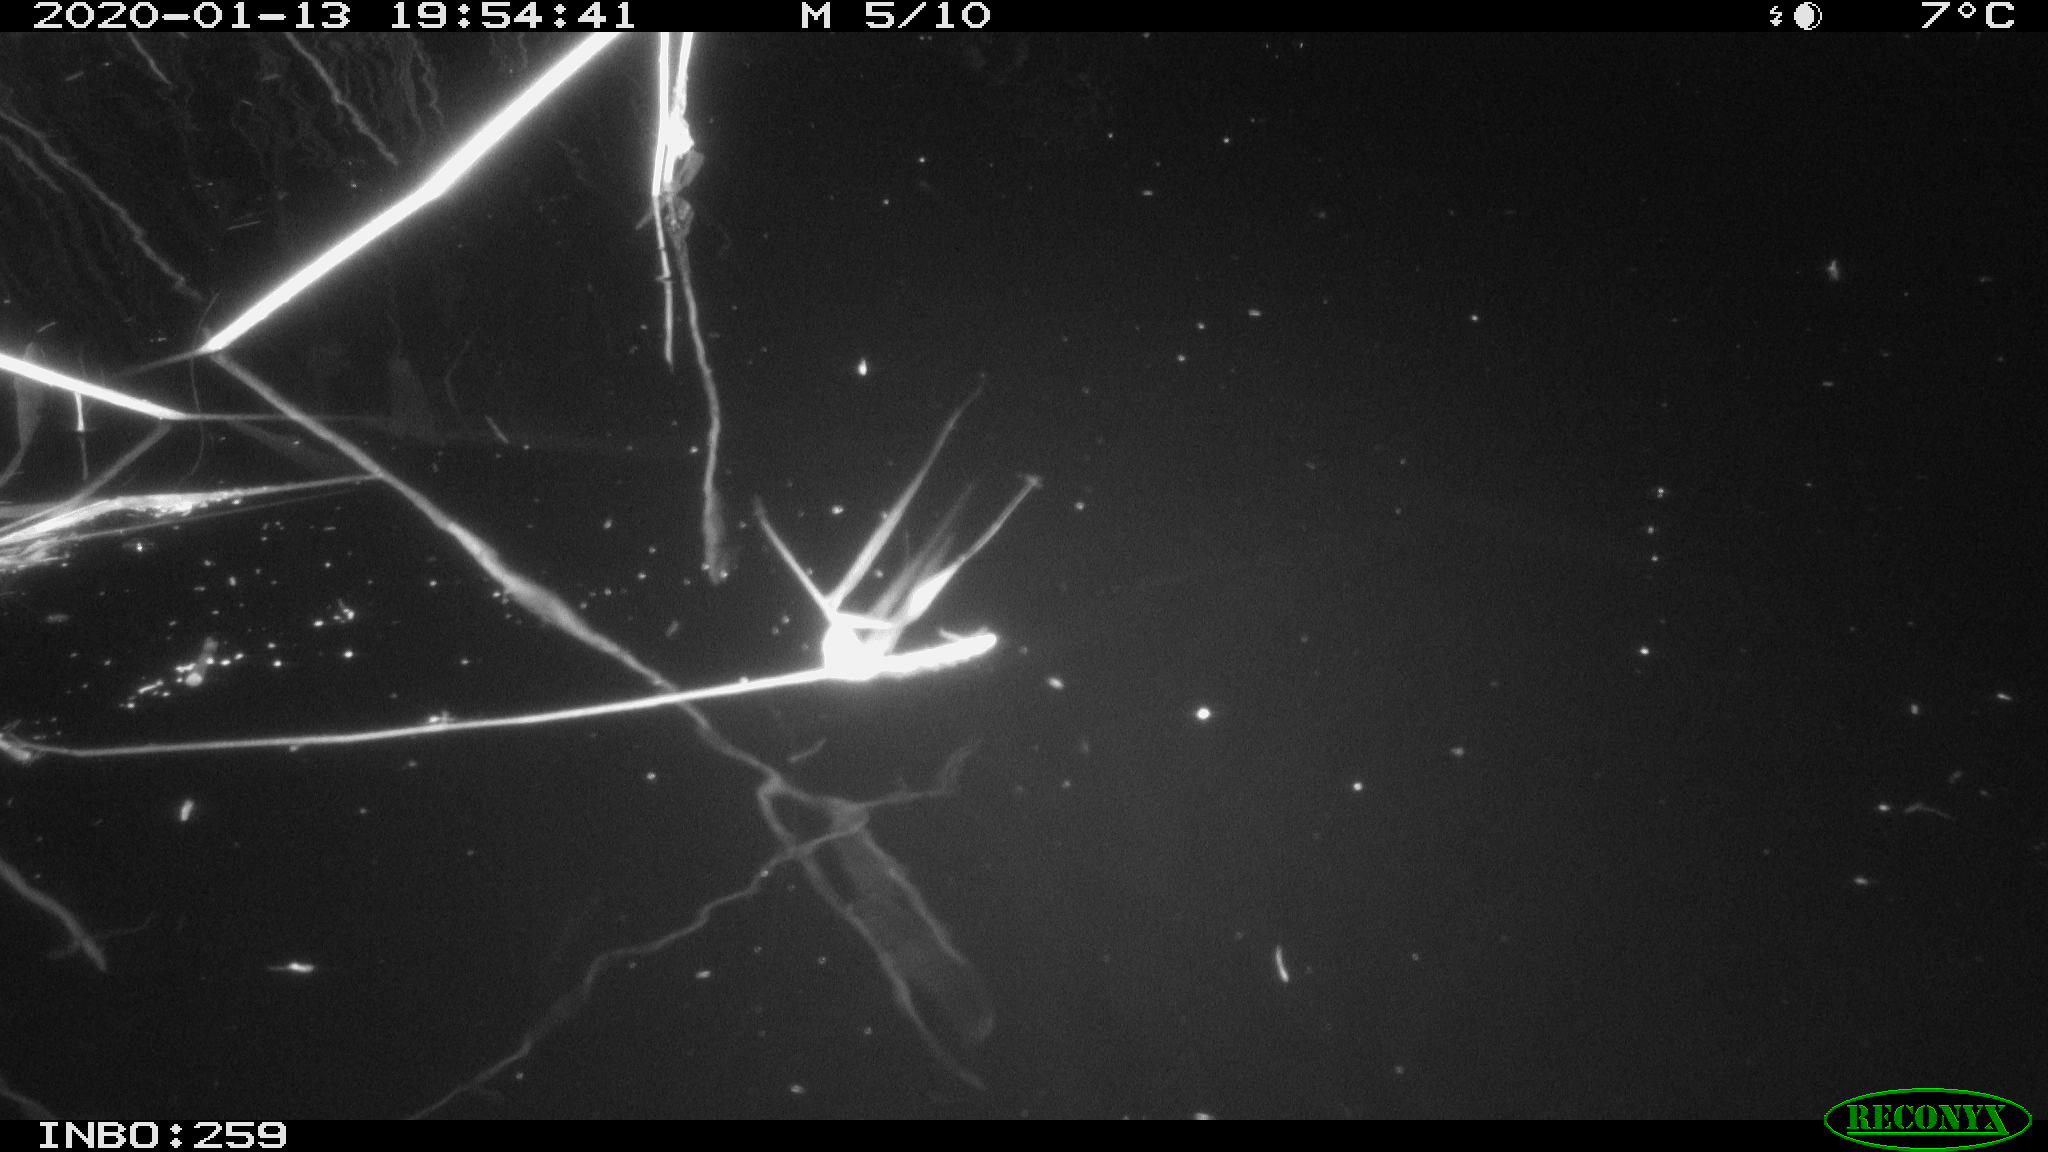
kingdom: Animalia
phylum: Chordata
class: Aves
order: Gruiformes
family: Rallidae
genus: Gallinula
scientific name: Gallinula chloropus
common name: Common moorhen
